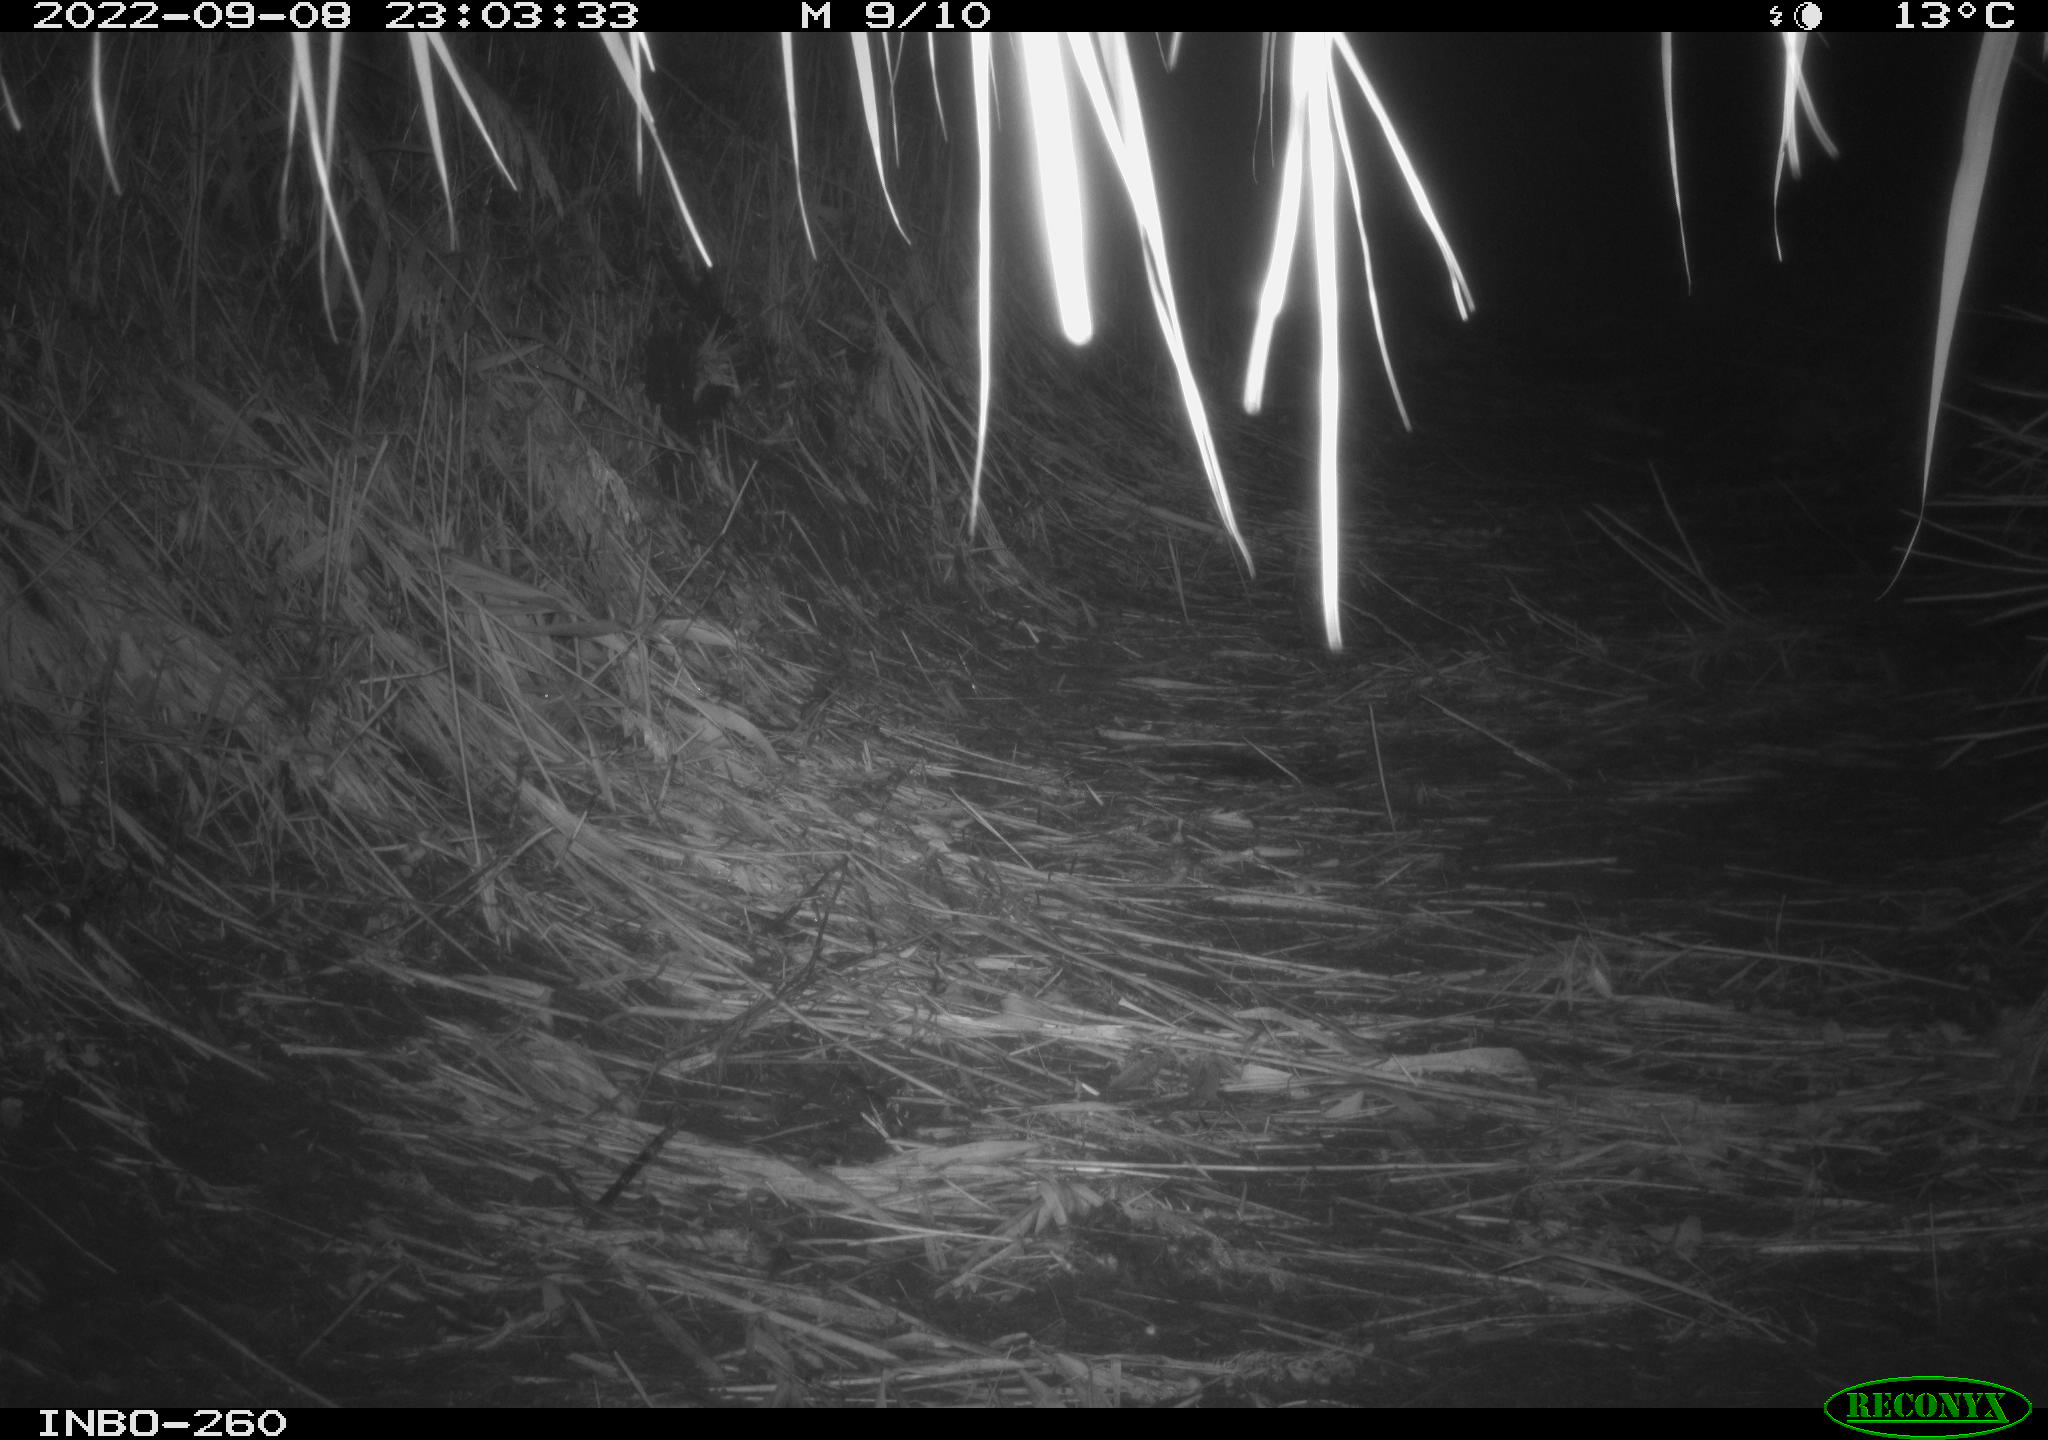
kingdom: Animalia
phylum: Chordata
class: Mammalia
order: Rodentia
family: Muridae
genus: Rattus
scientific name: Rattus norvegicus
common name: Brown rat
